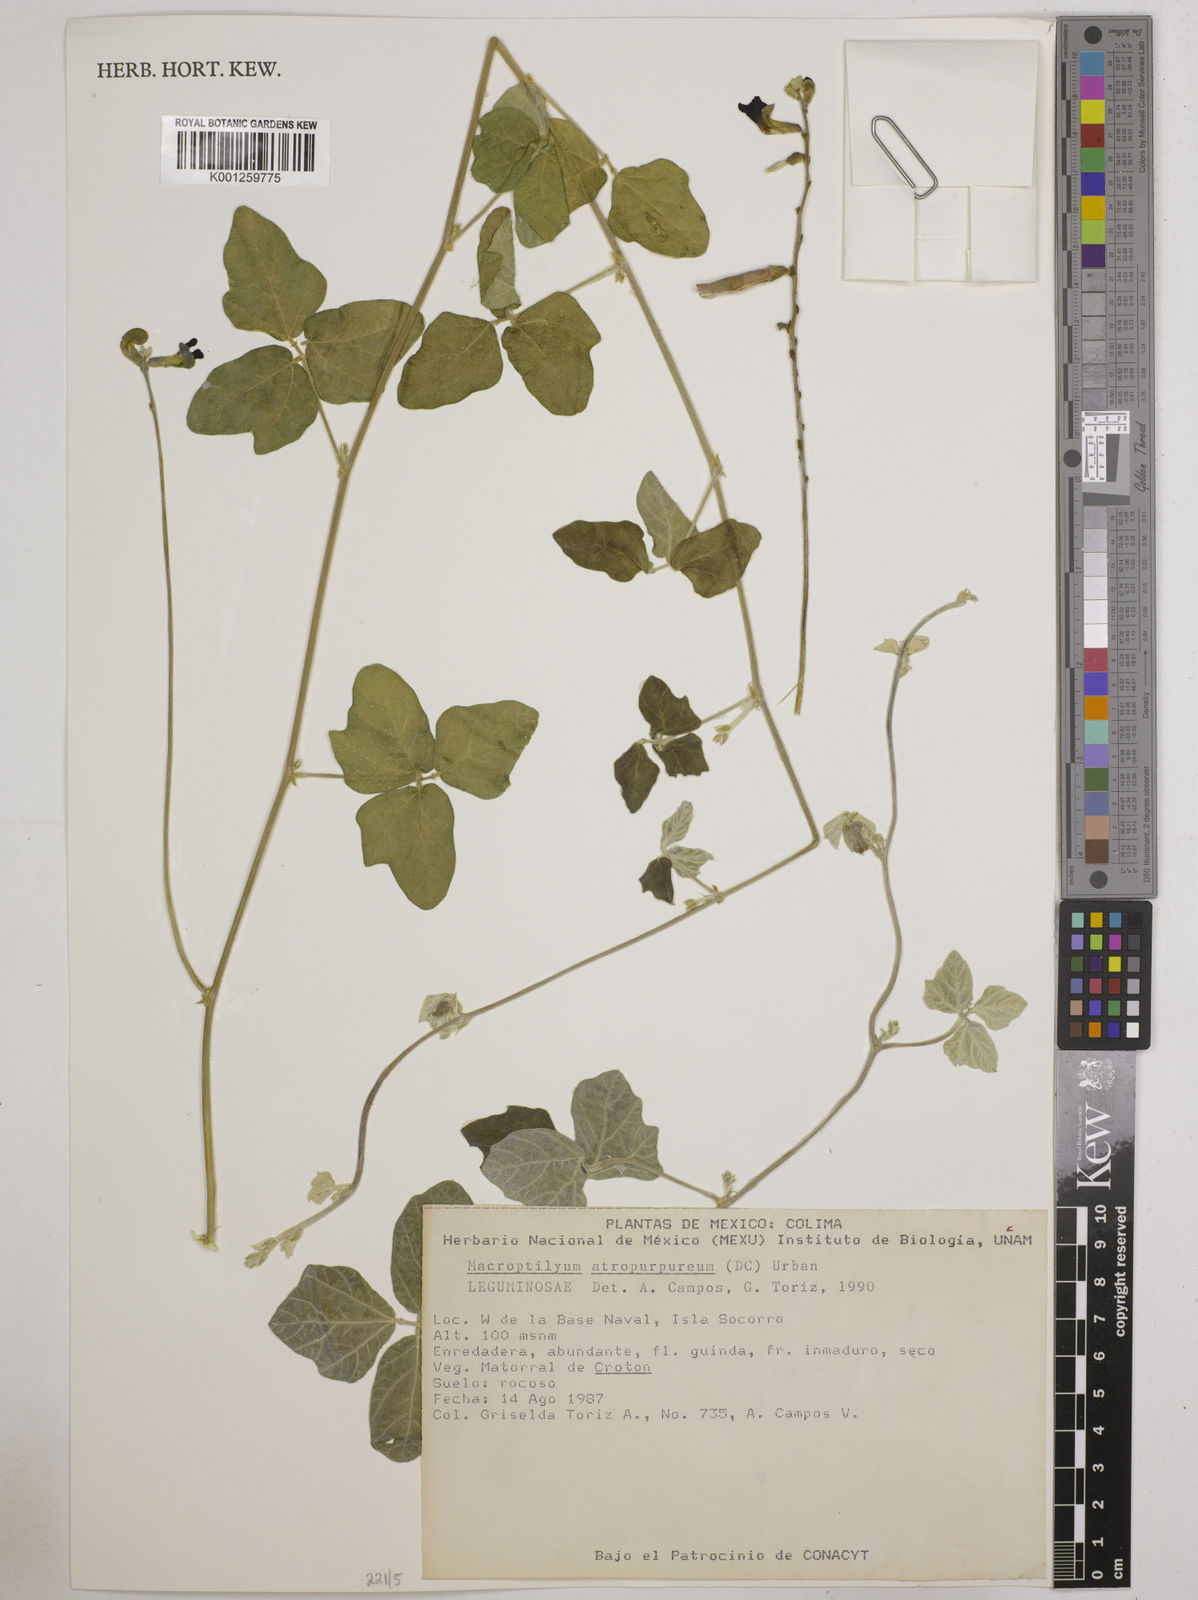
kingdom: Plantae
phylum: Tracheophyta
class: Magnoliopsida
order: Fabales
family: Fabaceae
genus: Macroptilium
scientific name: Macroptilium atropurpureum
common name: Purple bushbean
